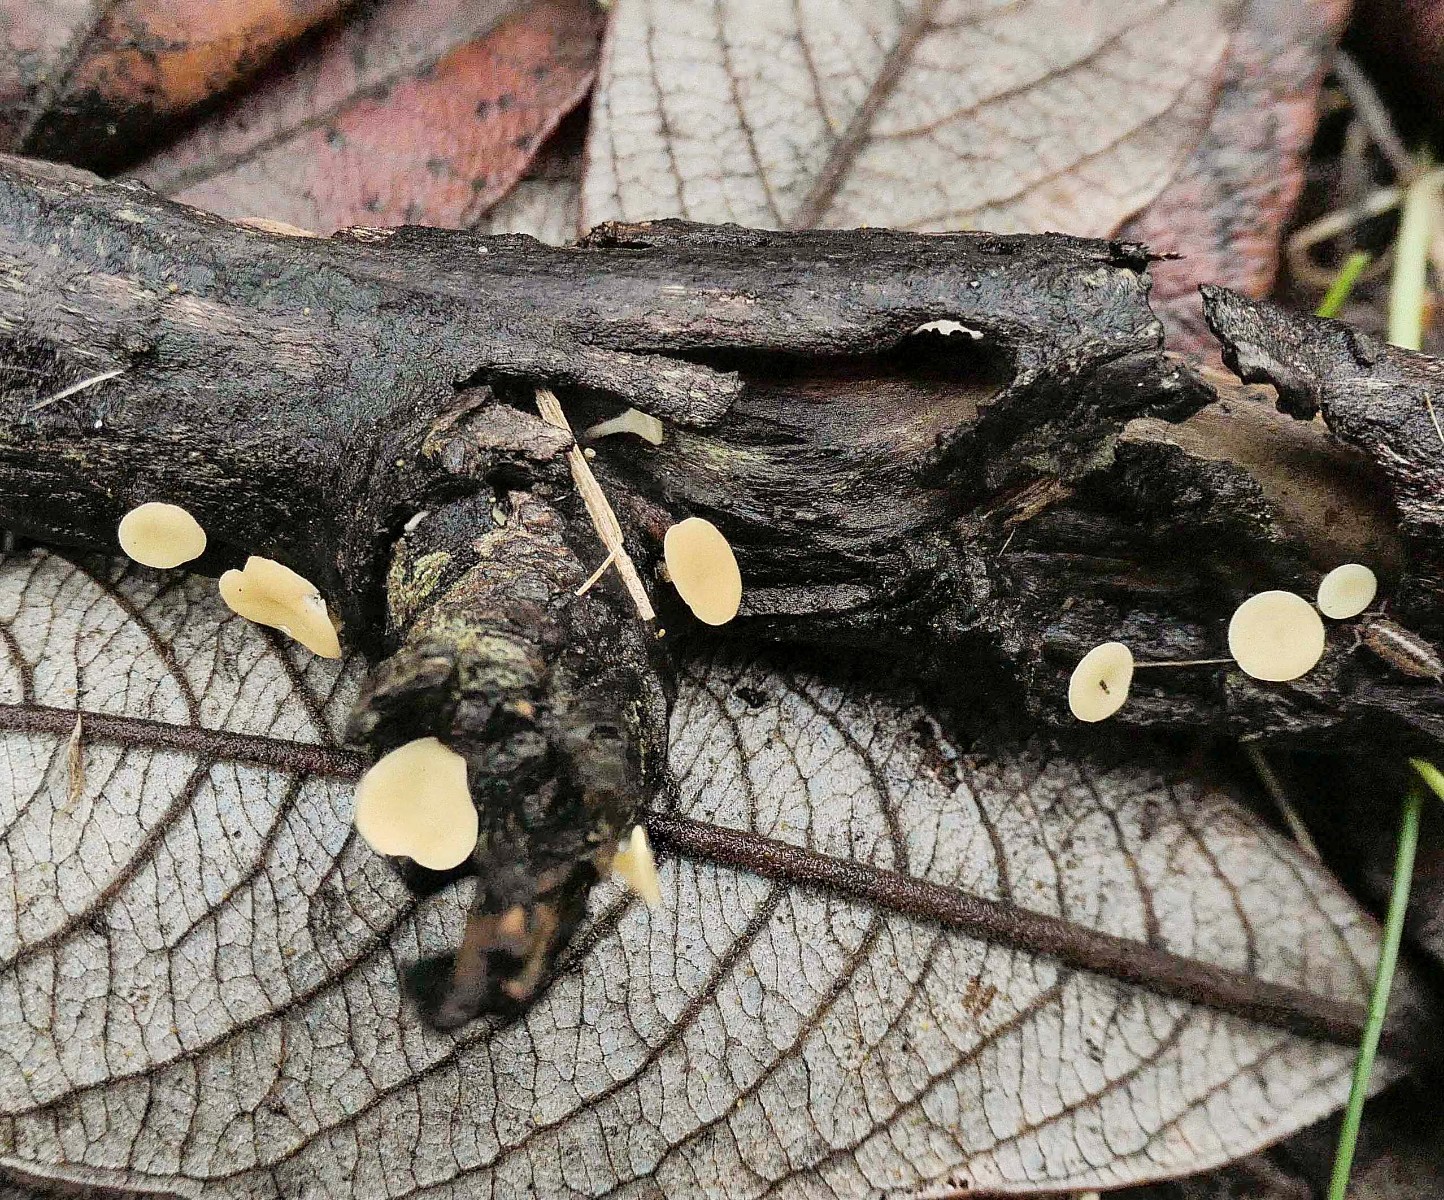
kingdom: Fungi
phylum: Ascomycota
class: Leotiomycetes
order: Helotiales
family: Helotiaceae
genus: Hymenoscyphus
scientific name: Hymenoscyphus calyculus
